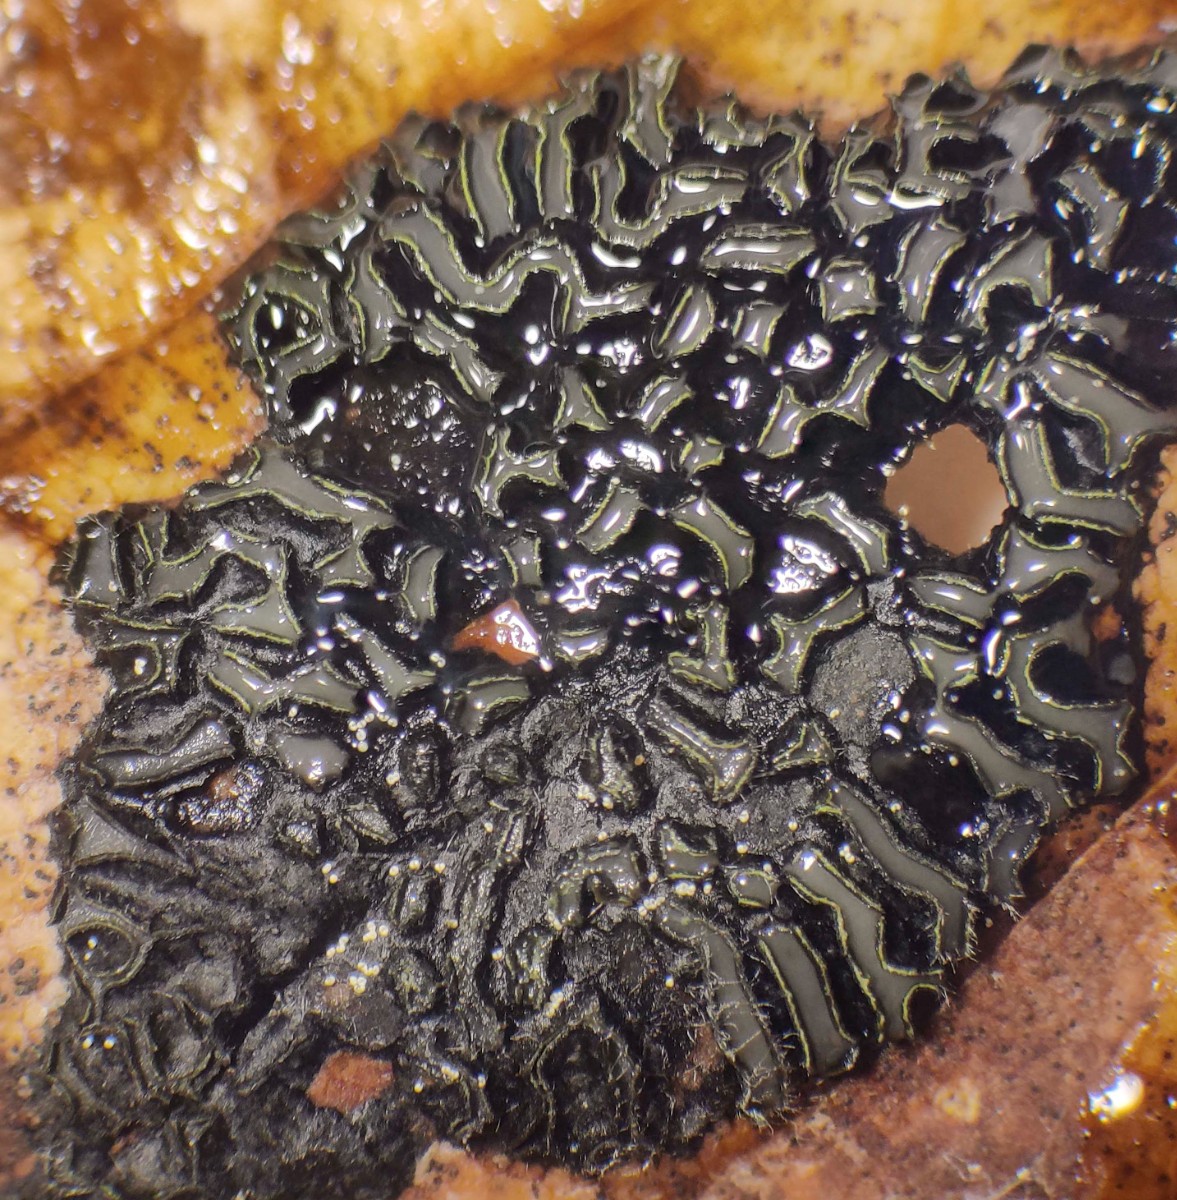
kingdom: Fungi
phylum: Ascomycota
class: Leotiomycetes
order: Rhytismatales
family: Rhytismataceae
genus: Rhytisma
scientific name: Rhytisma acerinum
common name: ahorn-rynkeplet
